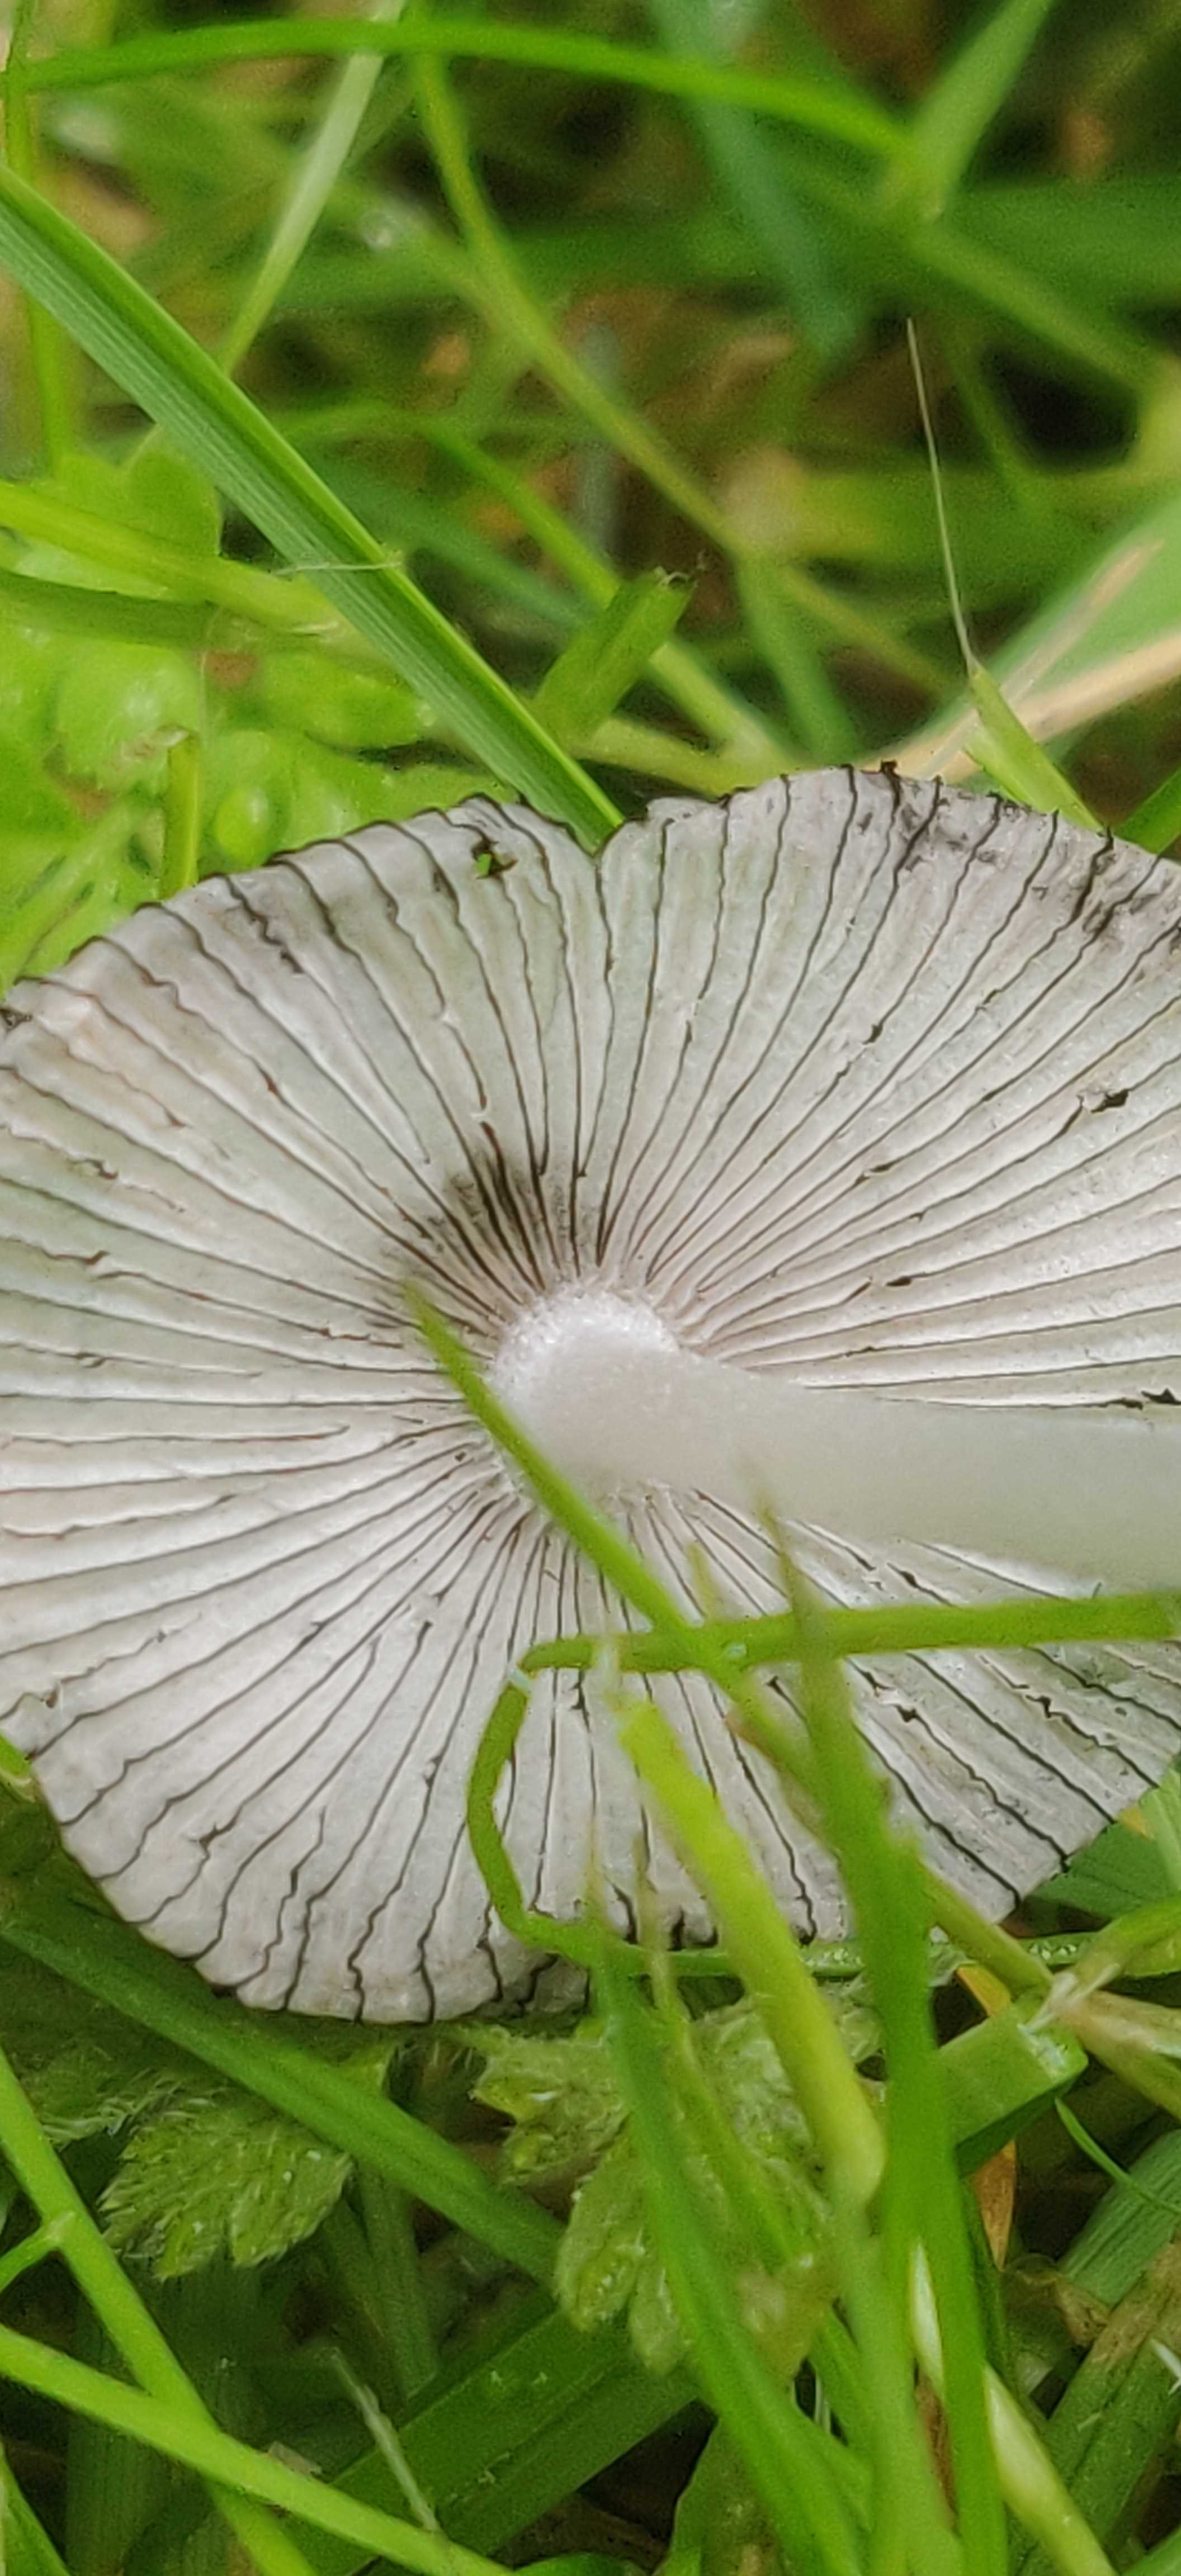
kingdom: Fungi
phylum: Basidiomycota
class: Agaricomycetes
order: Agaricales
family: Psathyrellaceae
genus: Coprinopsis
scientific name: Coprinopsis
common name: blækhat
